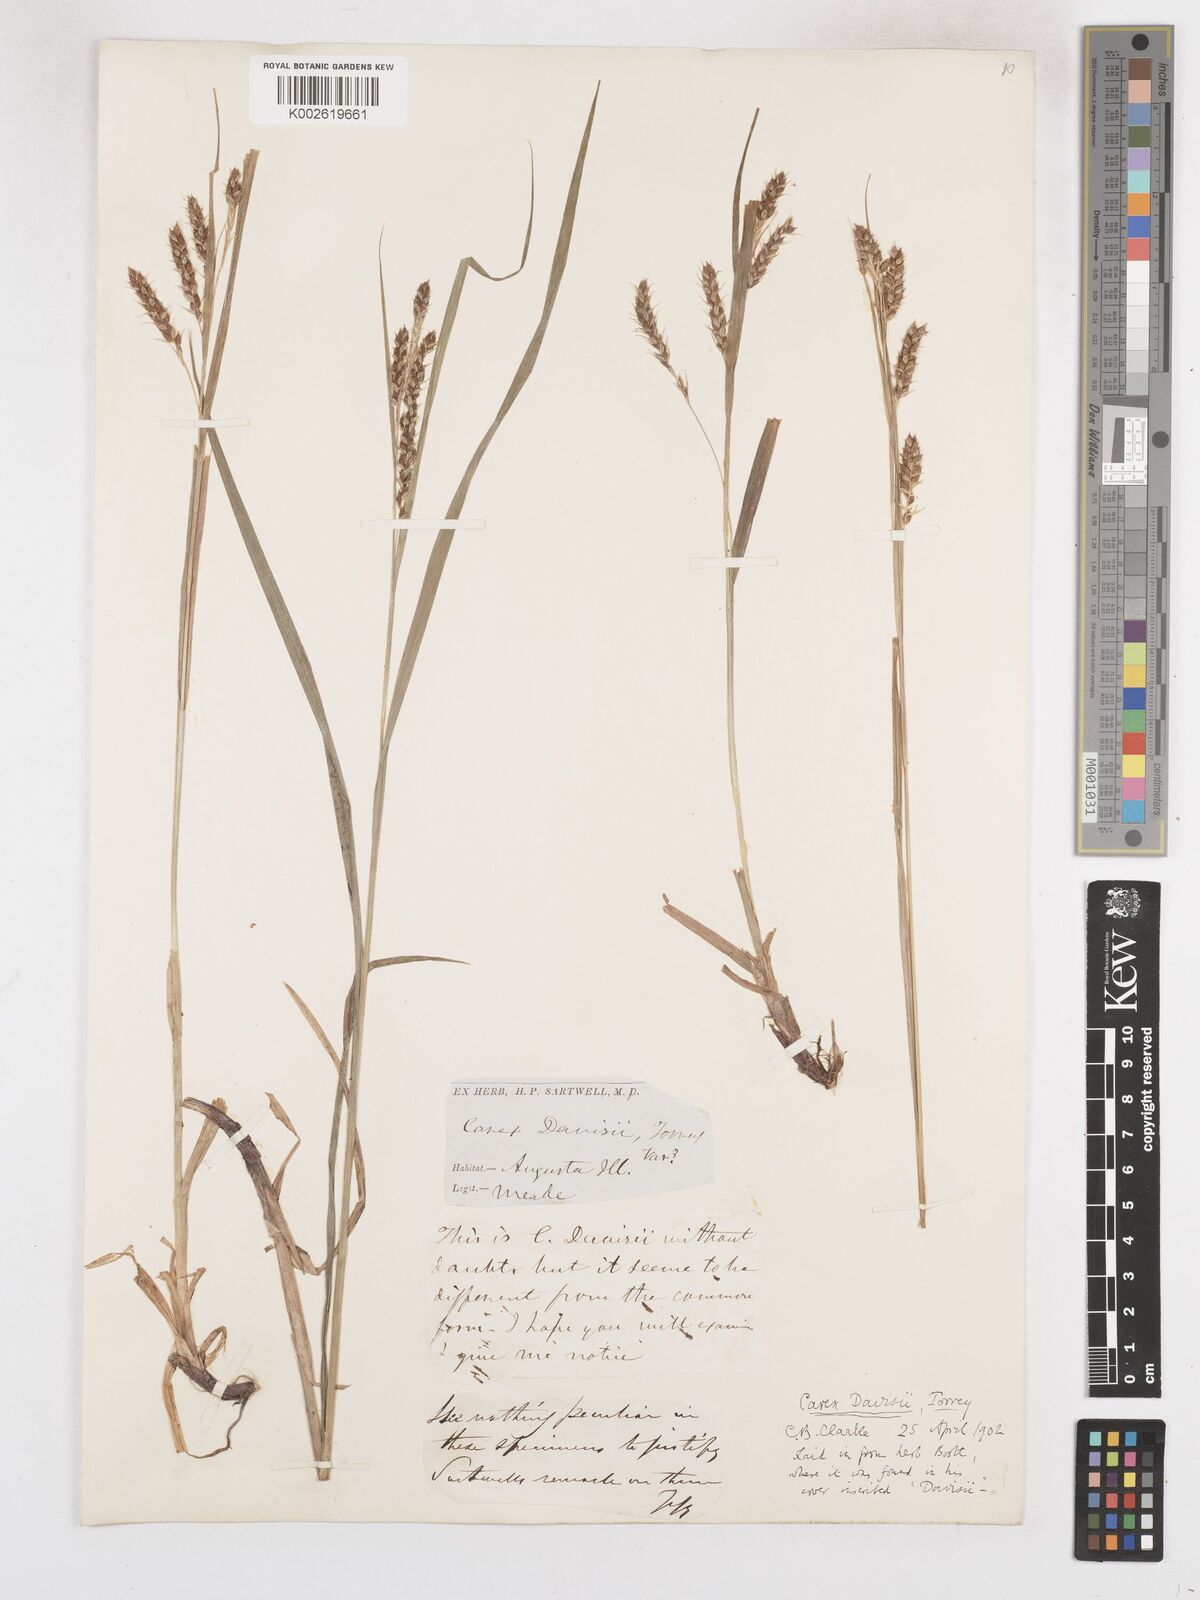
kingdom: Plantae
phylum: Tracheophyta
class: Liliopsida
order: Poales
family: Cyperaceae
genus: Carex
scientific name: Carex davisii
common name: Davis' sedge
